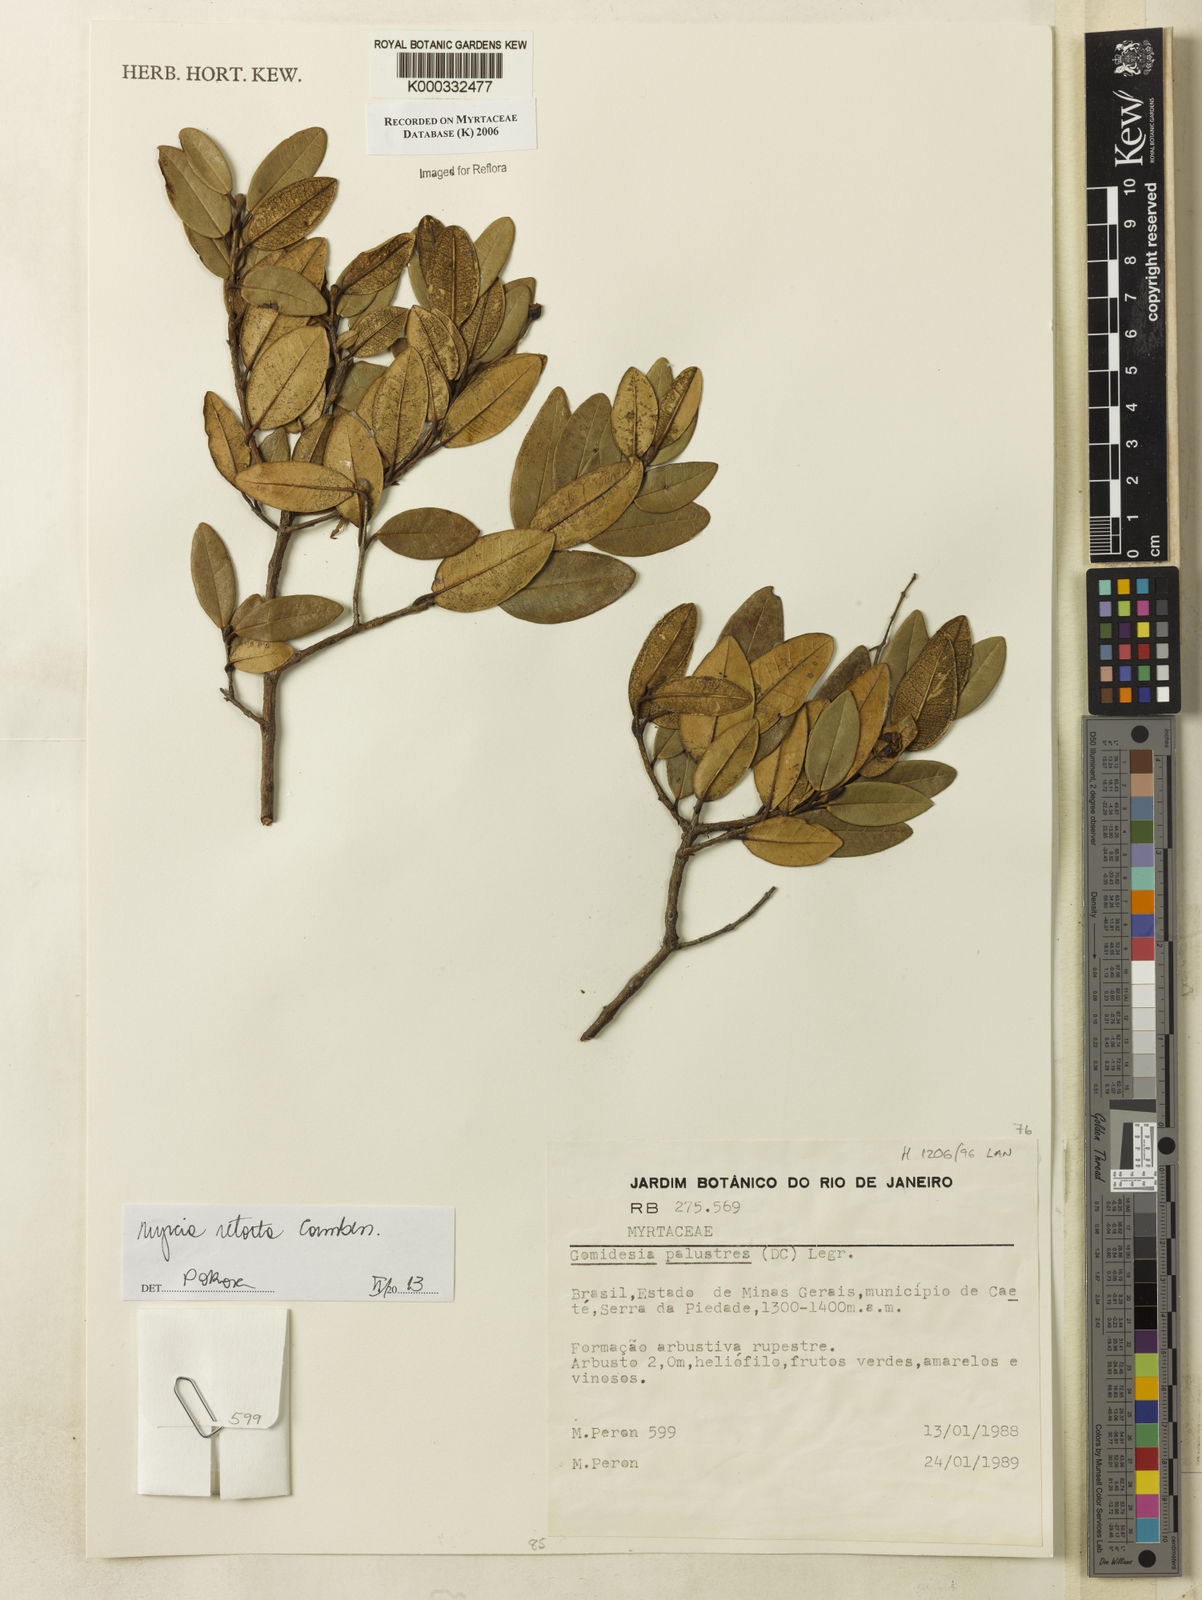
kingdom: Plantae
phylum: Tracheophyta
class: Magnoliopsida
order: Myrtales
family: Myrtaceae
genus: Myrcia
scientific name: Myrcia retorta
